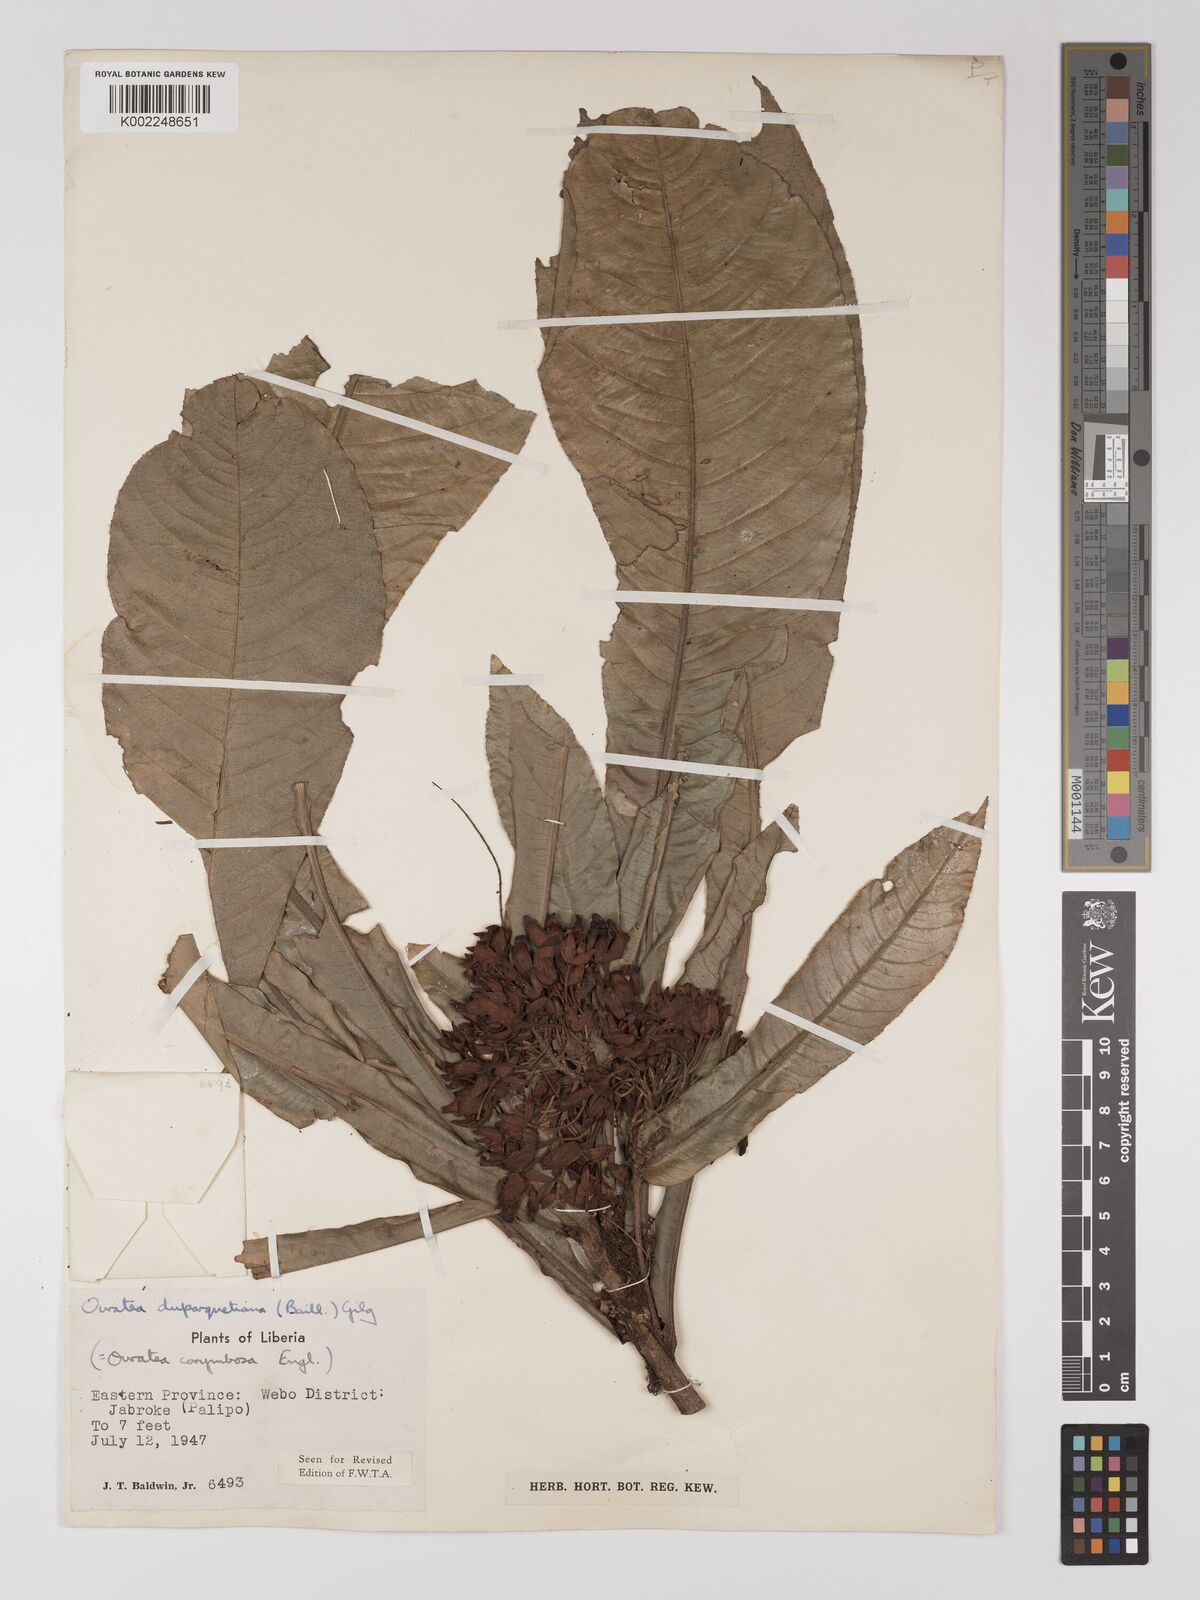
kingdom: Plantae
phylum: Tracheophyta
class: Magnoliopsida
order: Malpighiales
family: Ochnaceae
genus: Campylospermum
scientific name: Campylospermum duparquetianum
